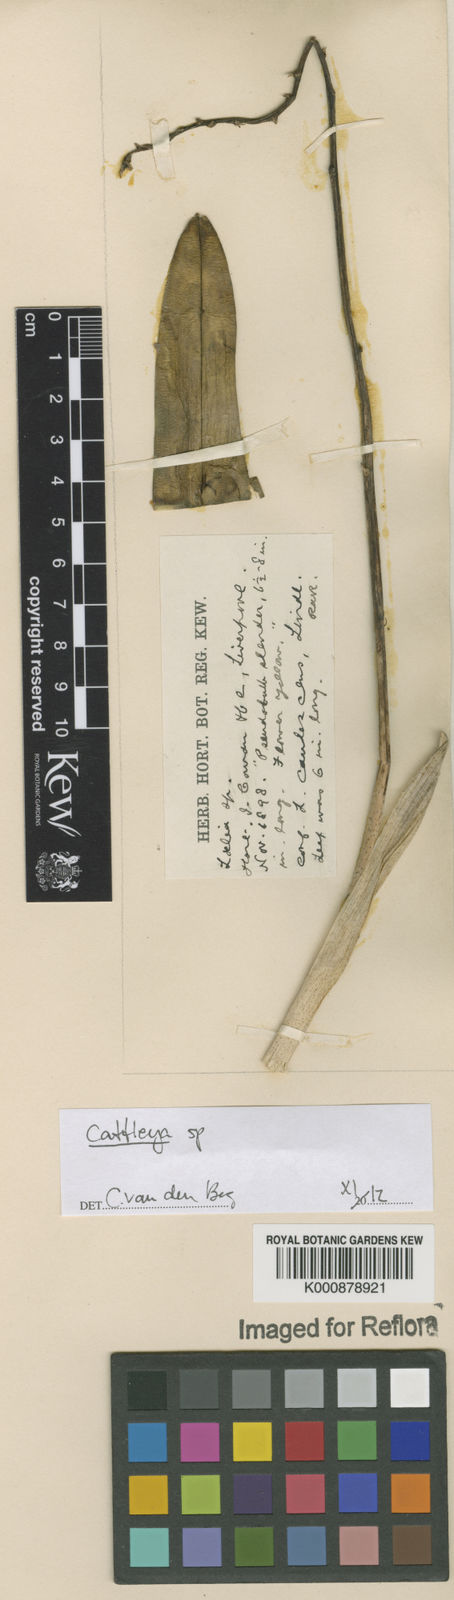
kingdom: Plantae
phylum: Tracheophyta
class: Liliopsida
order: Asparagales
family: Orchidaceae
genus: Cattleya
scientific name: Cattleya
